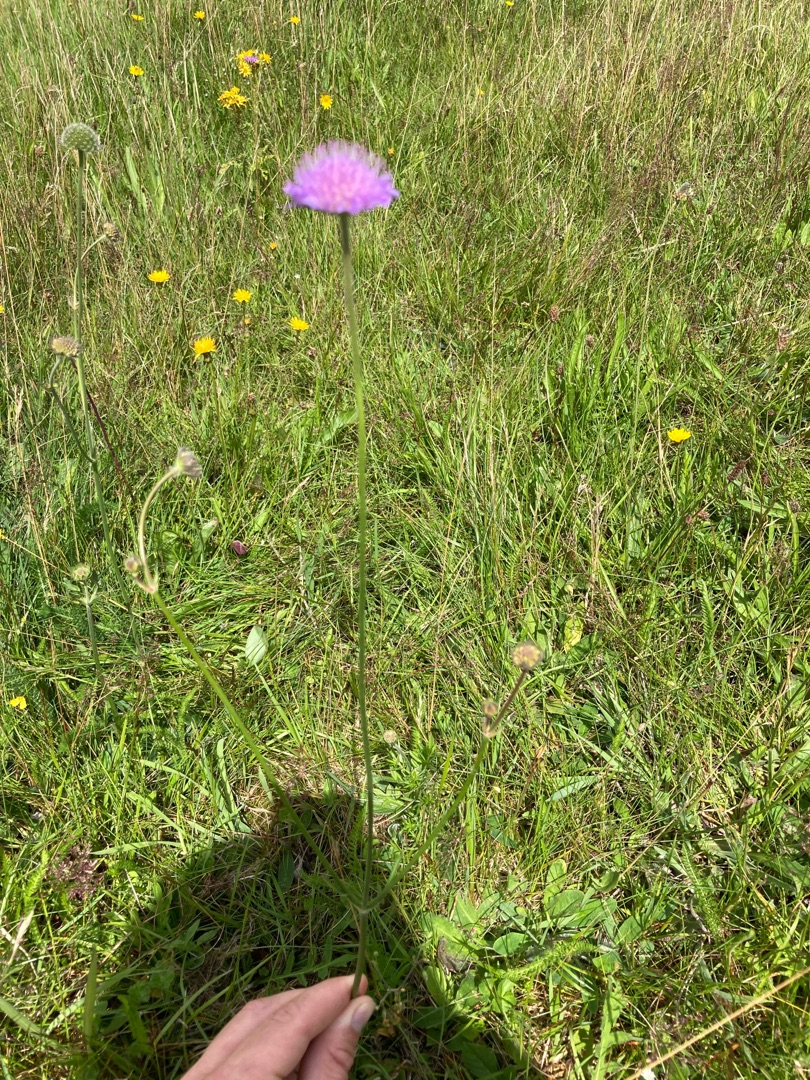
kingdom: Plantae
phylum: Tracheophyta
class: Magnoliopsida
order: Dipsacales
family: Caprifoliaceae
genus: Knautia
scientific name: Knautia arvensis
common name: Blåhat
